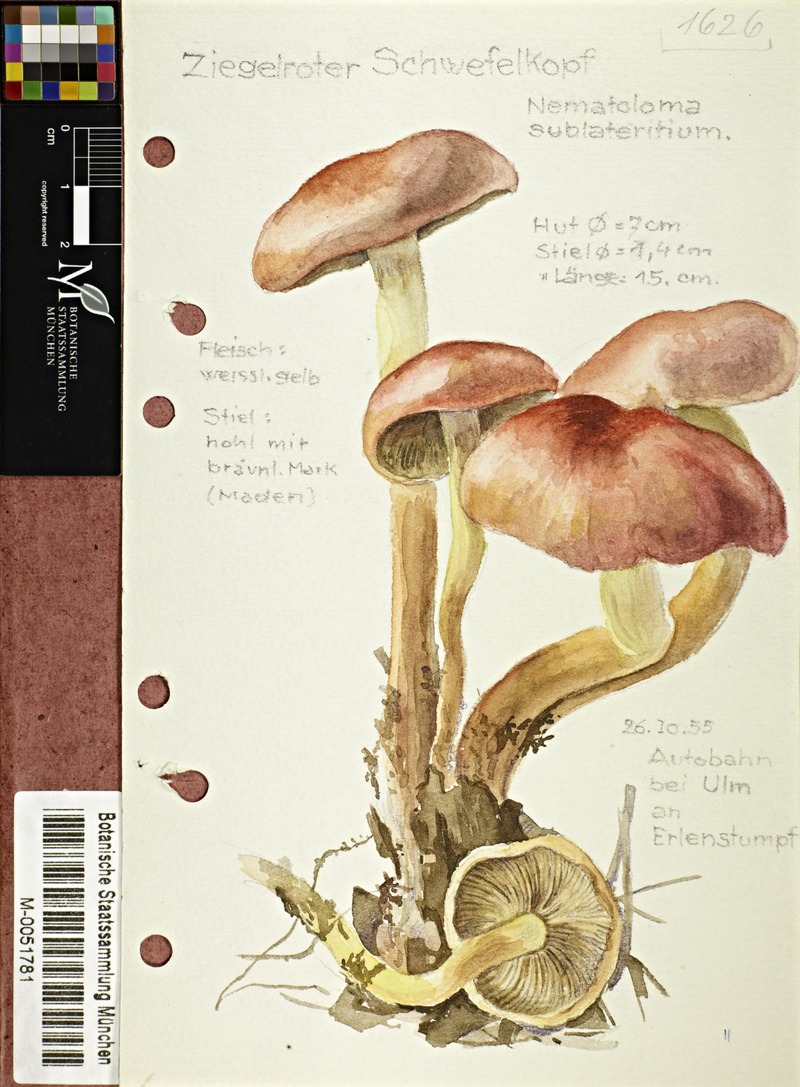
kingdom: Fungi
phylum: Basidiomycota
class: Agaricomycetes
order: Agaricales
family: Strophariaceae
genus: Hypholoma
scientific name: Hypholoma fasciculare
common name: Sulphur tuft
